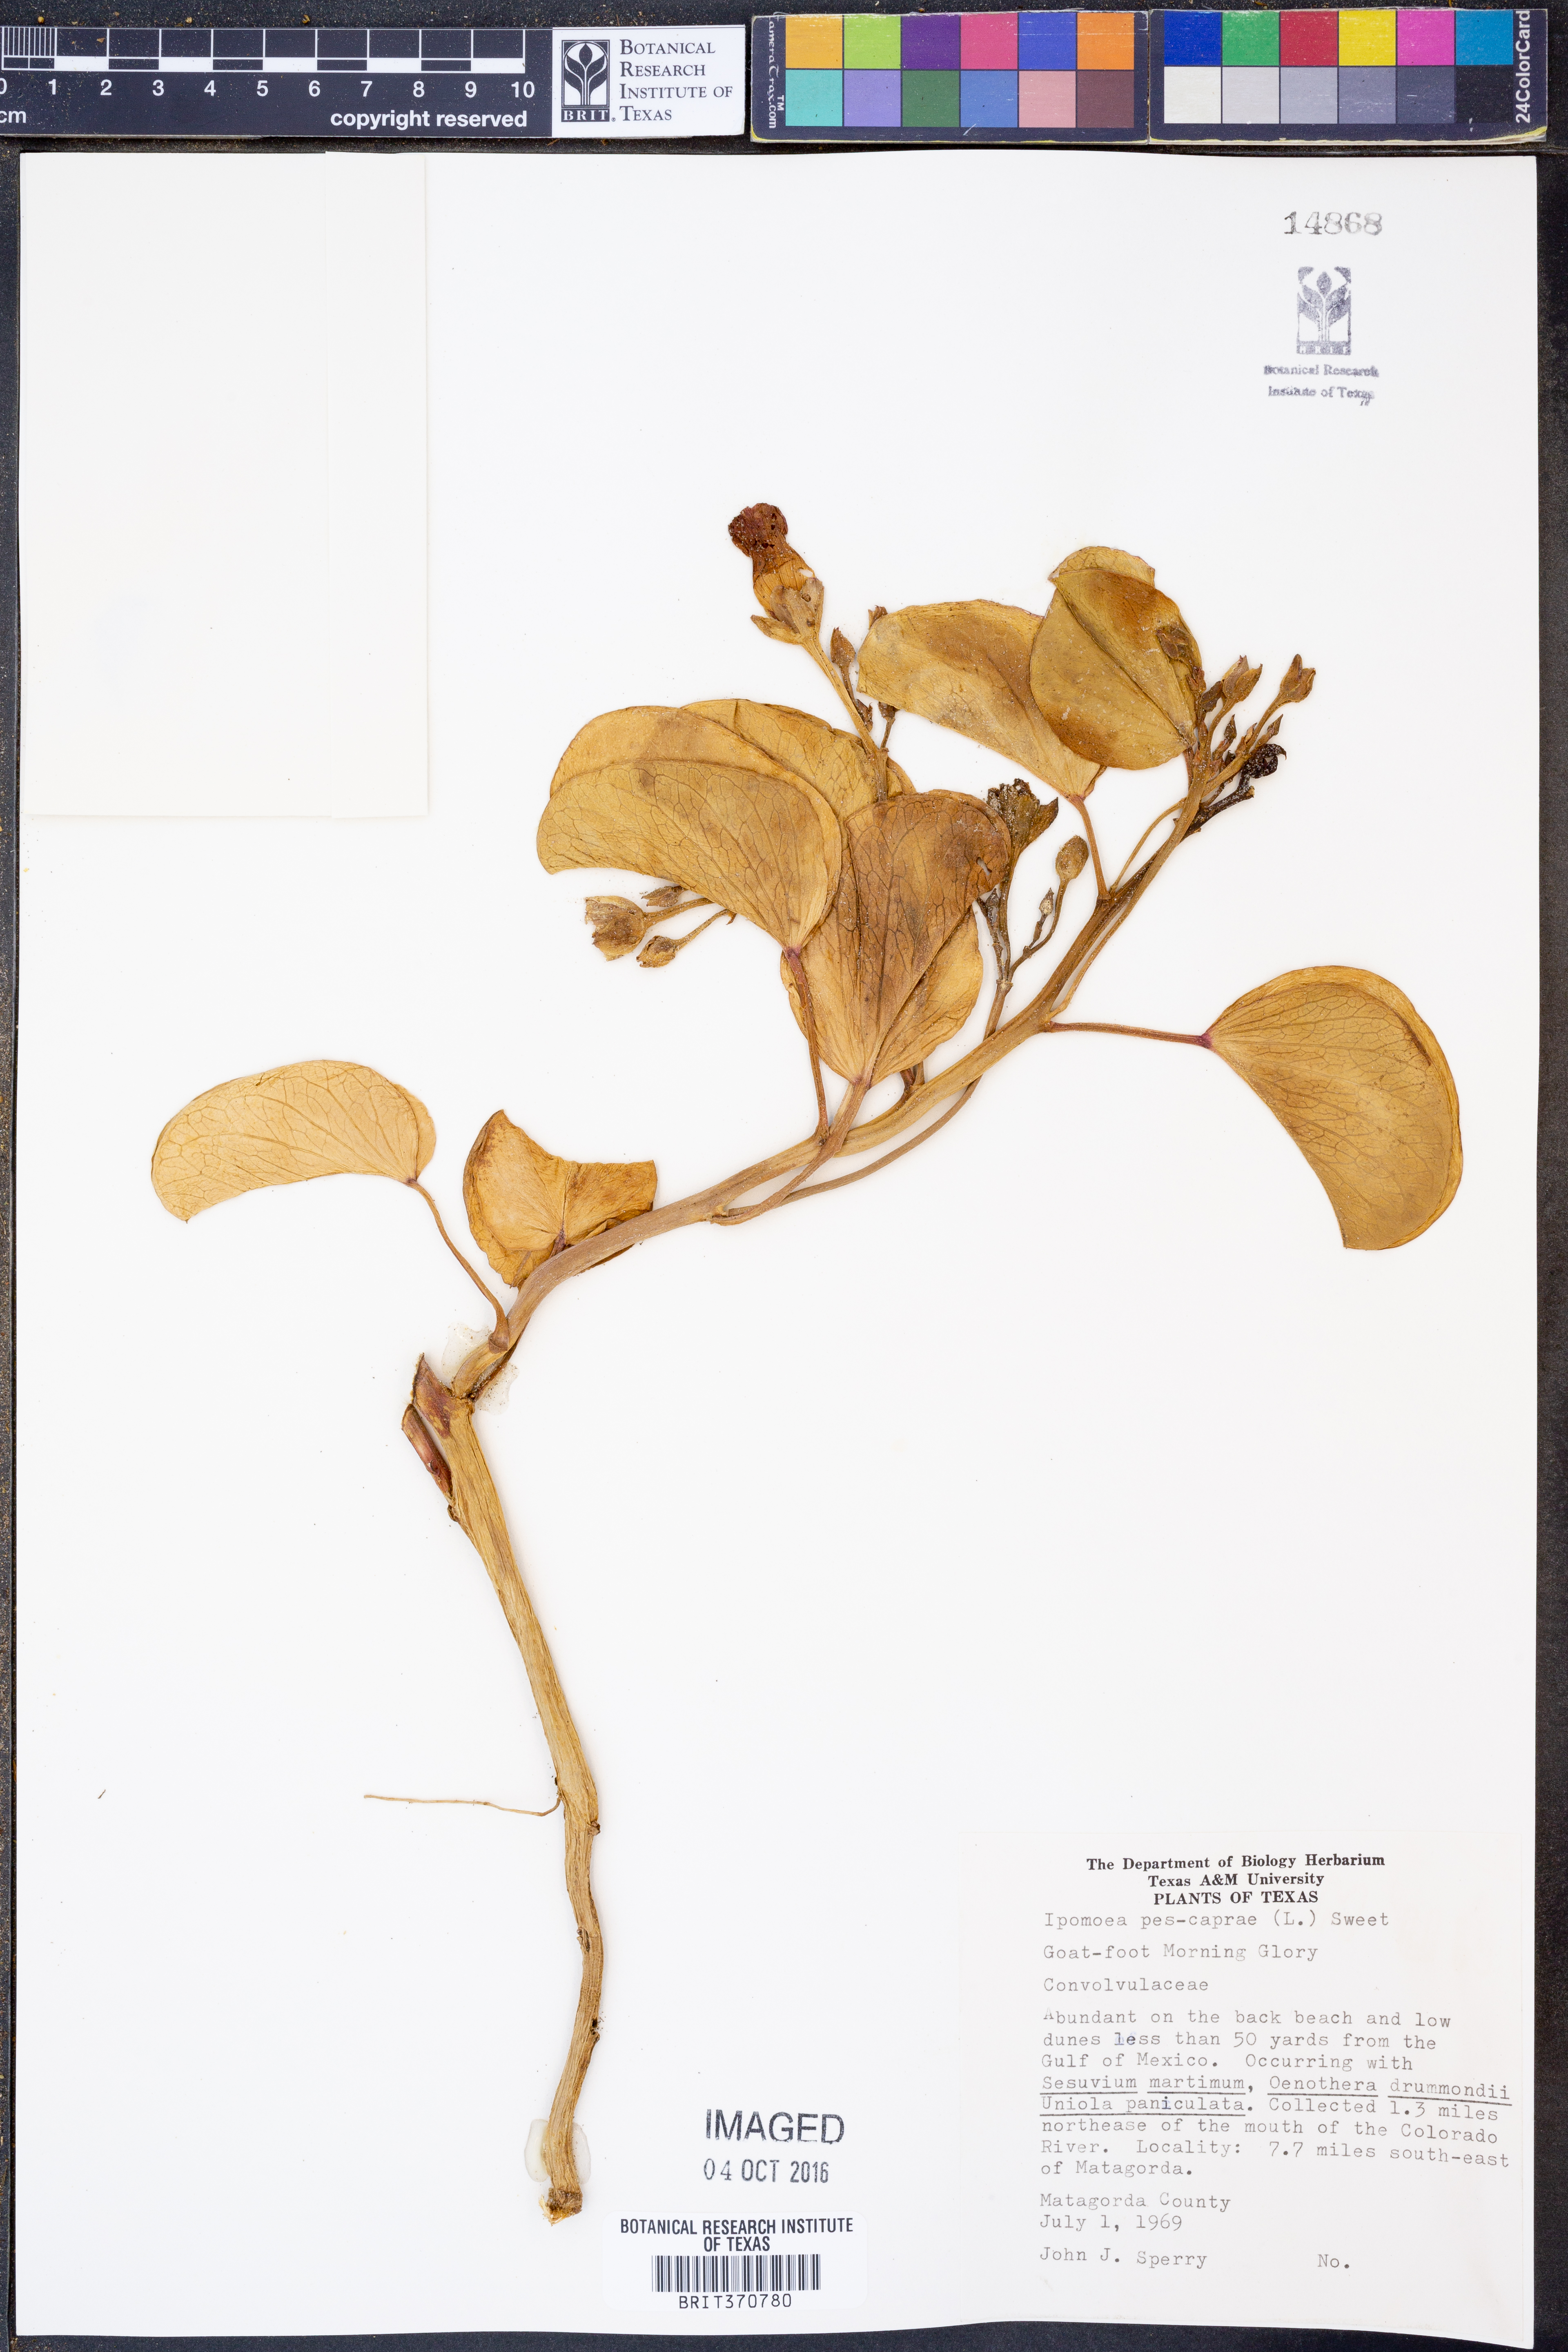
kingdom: Plantae
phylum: Tracheophyta
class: Magnoliopsida
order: Solanales
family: Convolvulaceae
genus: Ipomoea
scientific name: Ipomoea pes-caprae
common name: Beach morning glory
